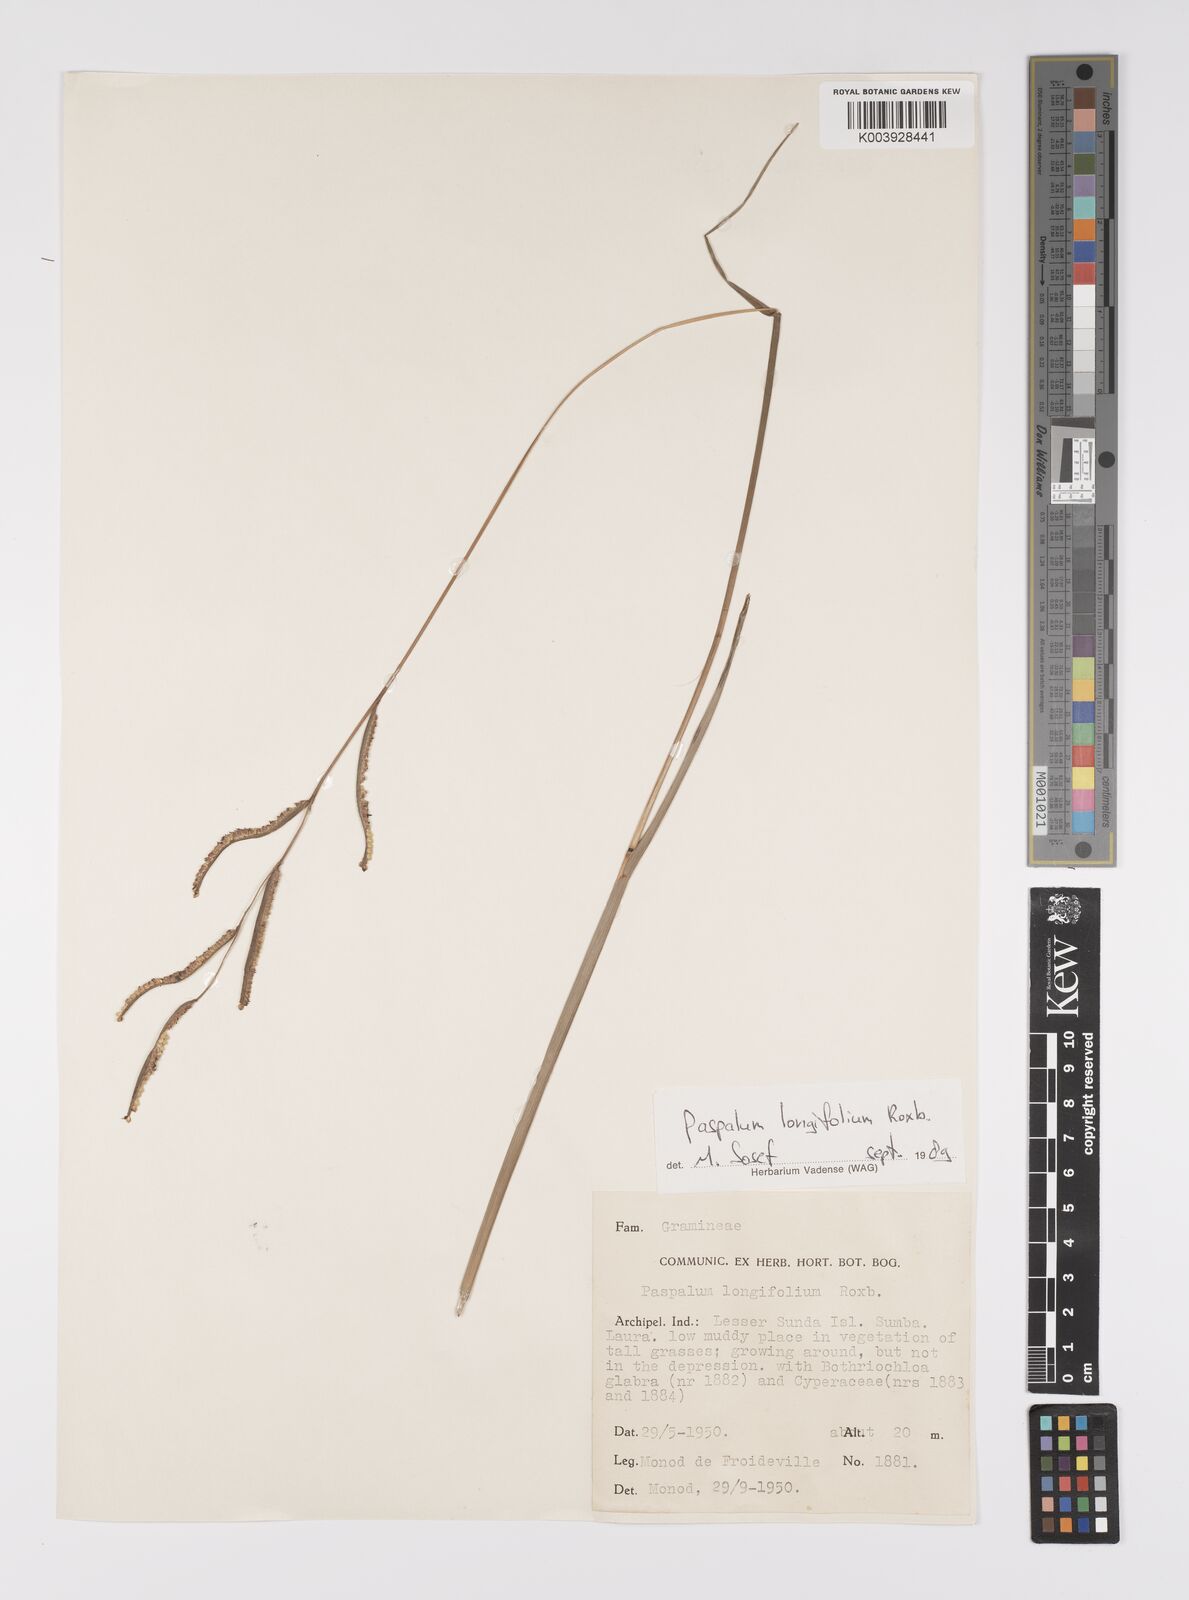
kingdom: Plantae
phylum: Tracheophyta
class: Liliopsida
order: Poales
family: Poaceae
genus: Paspalum
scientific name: Paspalum sumatrense
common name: Long-leaved paspalum
